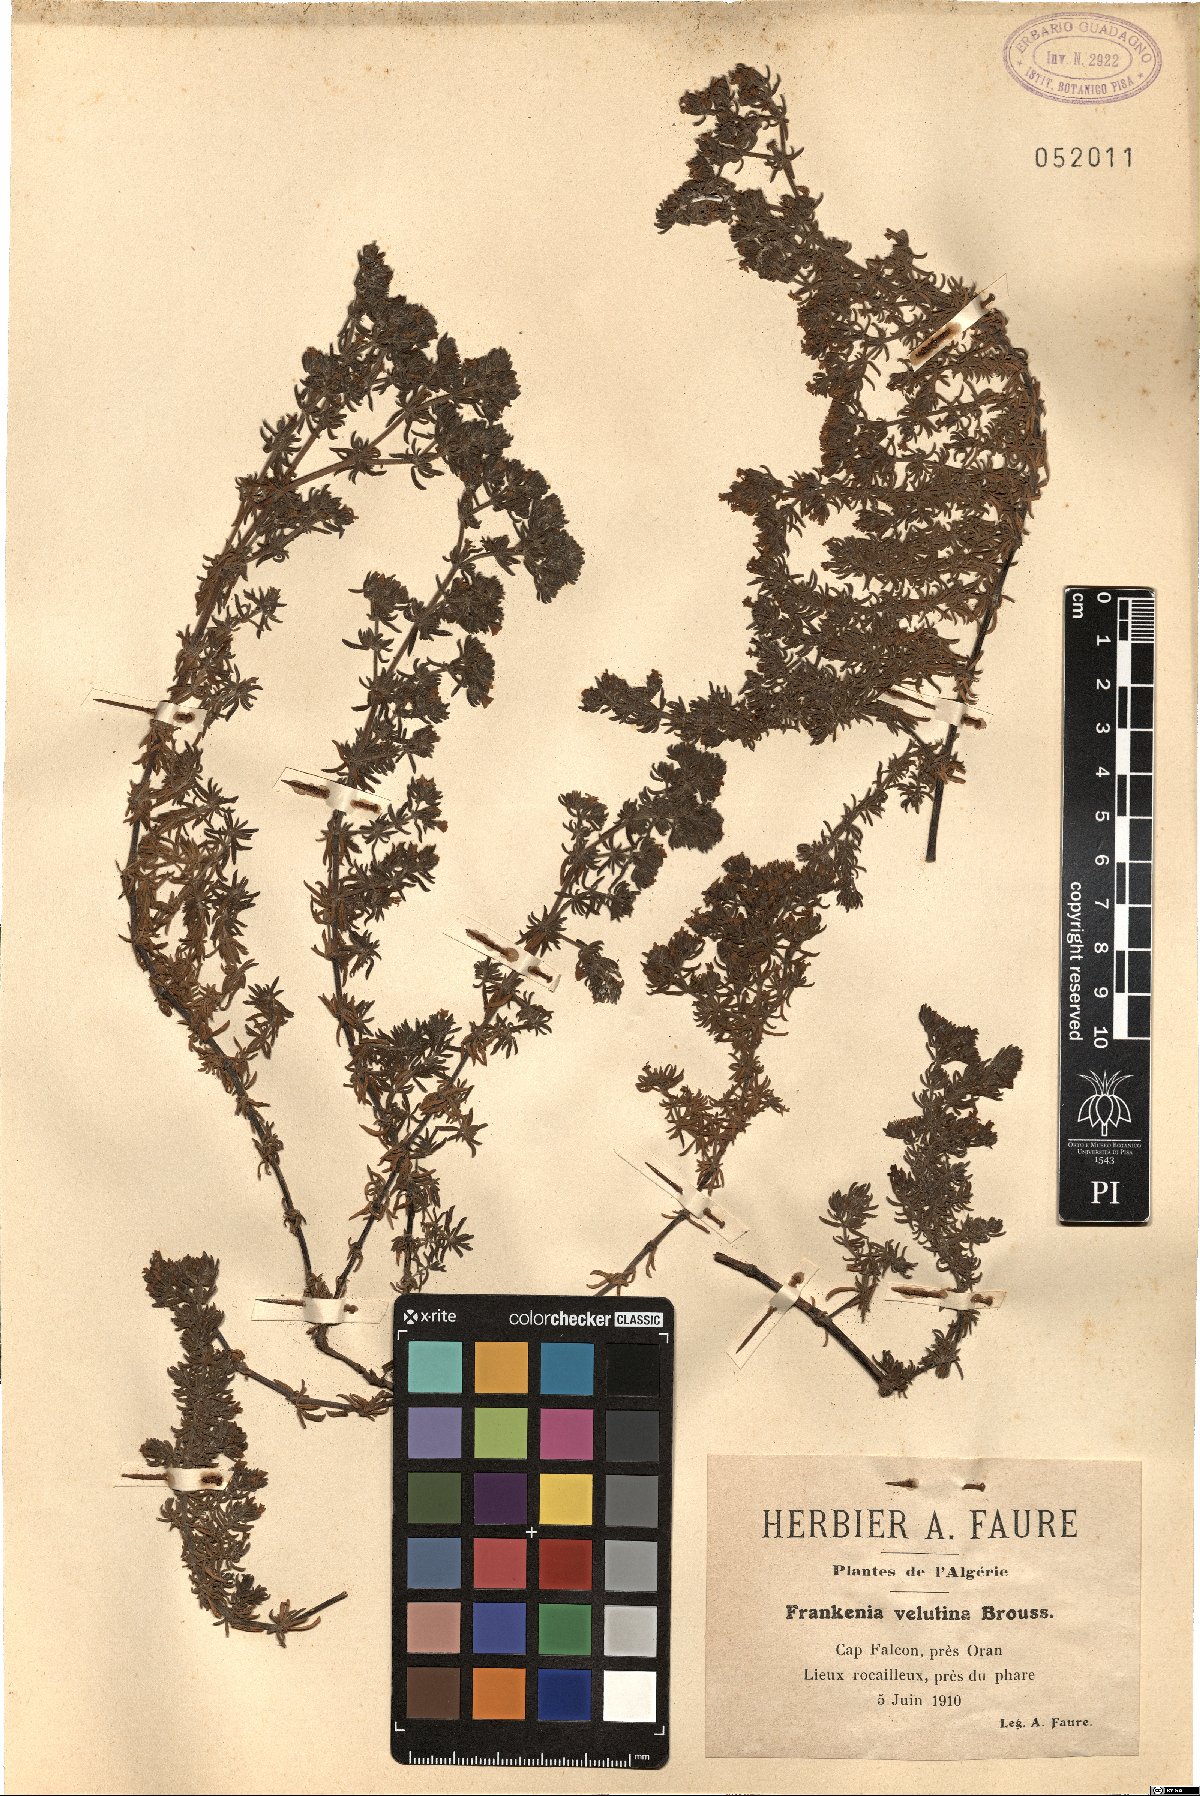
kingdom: Plantae
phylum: Tracheophyta
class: Magnoliopsida
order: Caryophyllales
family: Frankeniaceae
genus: Frankenia
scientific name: Frankenia laevis
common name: Sea-heath
